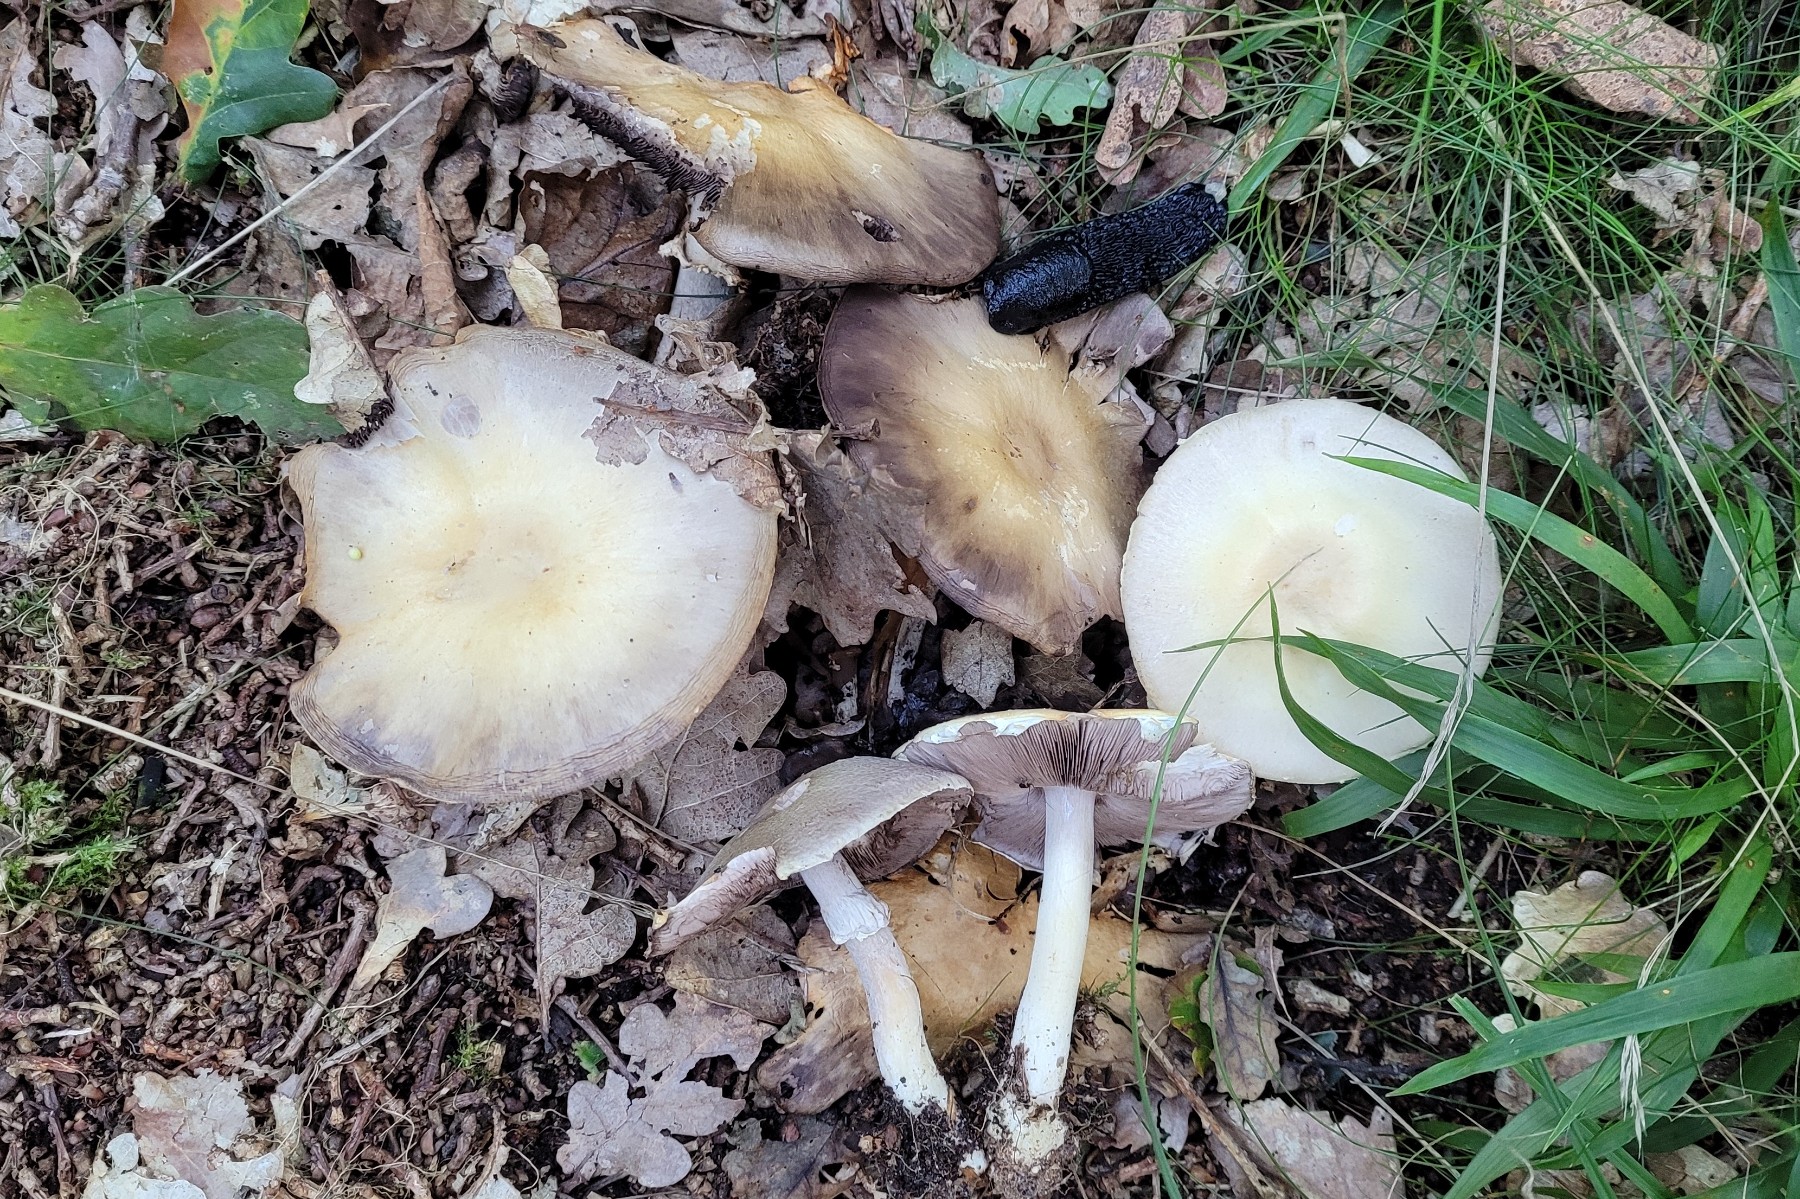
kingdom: Fungi
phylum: Basidiomycota
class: Agaricomycetes
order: Agaricales
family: Agaricaceae
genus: Agaricus
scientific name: Agaricus sylvicola
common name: gulhvid champignon
